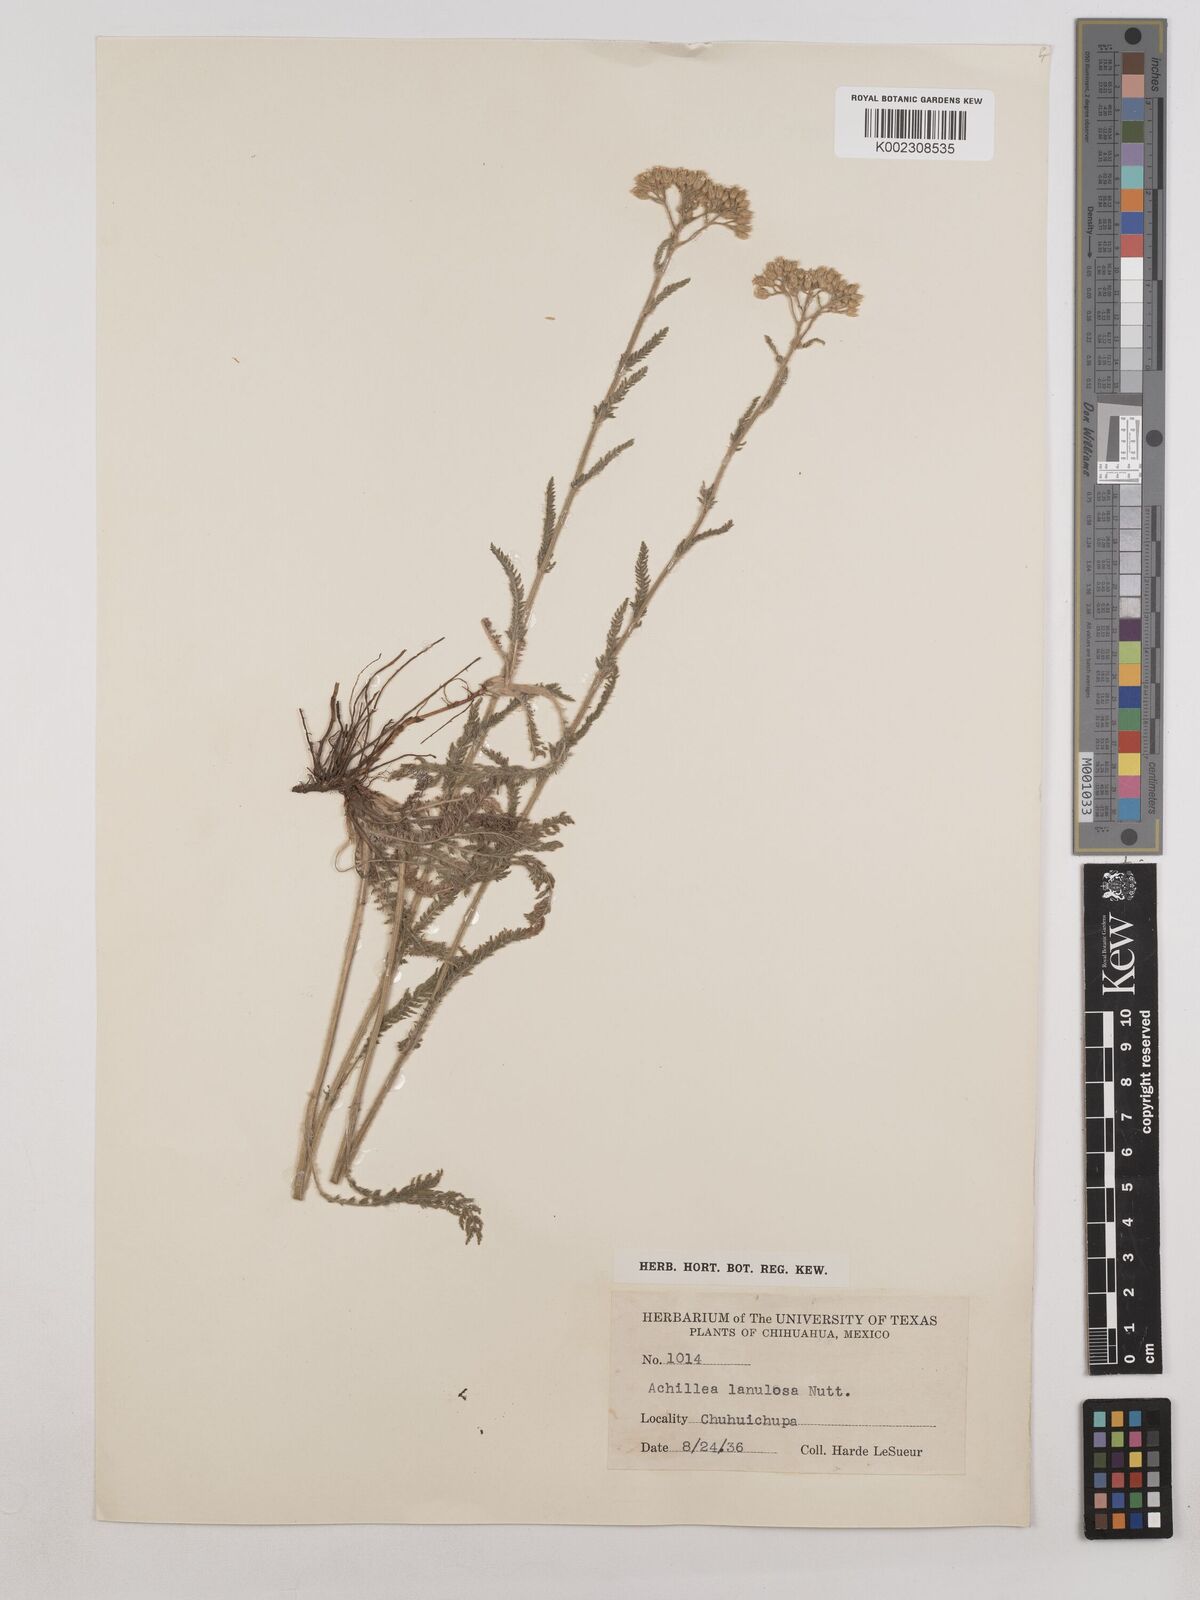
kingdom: Plantae
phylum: Tracheophyta
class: Magnoliopsida
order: Asterales
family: Asteraceae
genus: Achillea
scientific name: Achillea millefolium
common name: Yarrow
